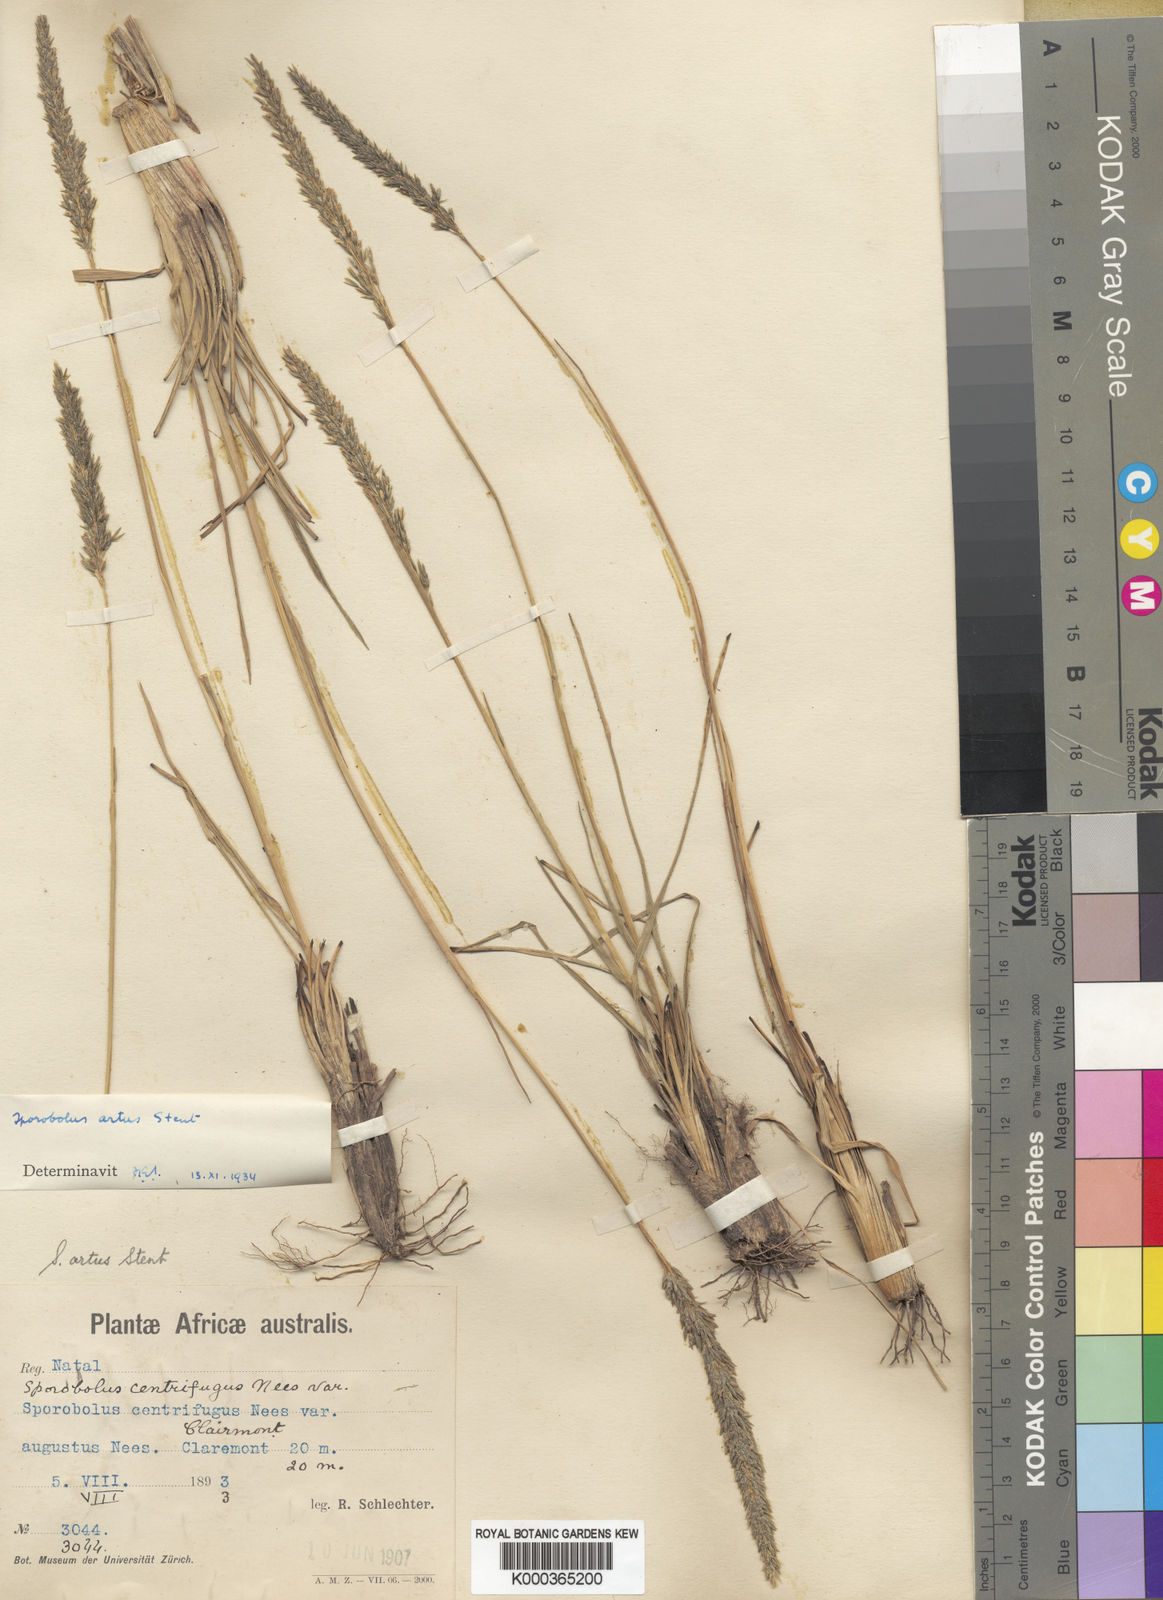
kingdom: Plantae
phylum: Tracheophyta
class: Liliopsida
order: Poales
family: Poaceae
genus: Sporobolus
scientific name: Sporobolus rigidifolius
